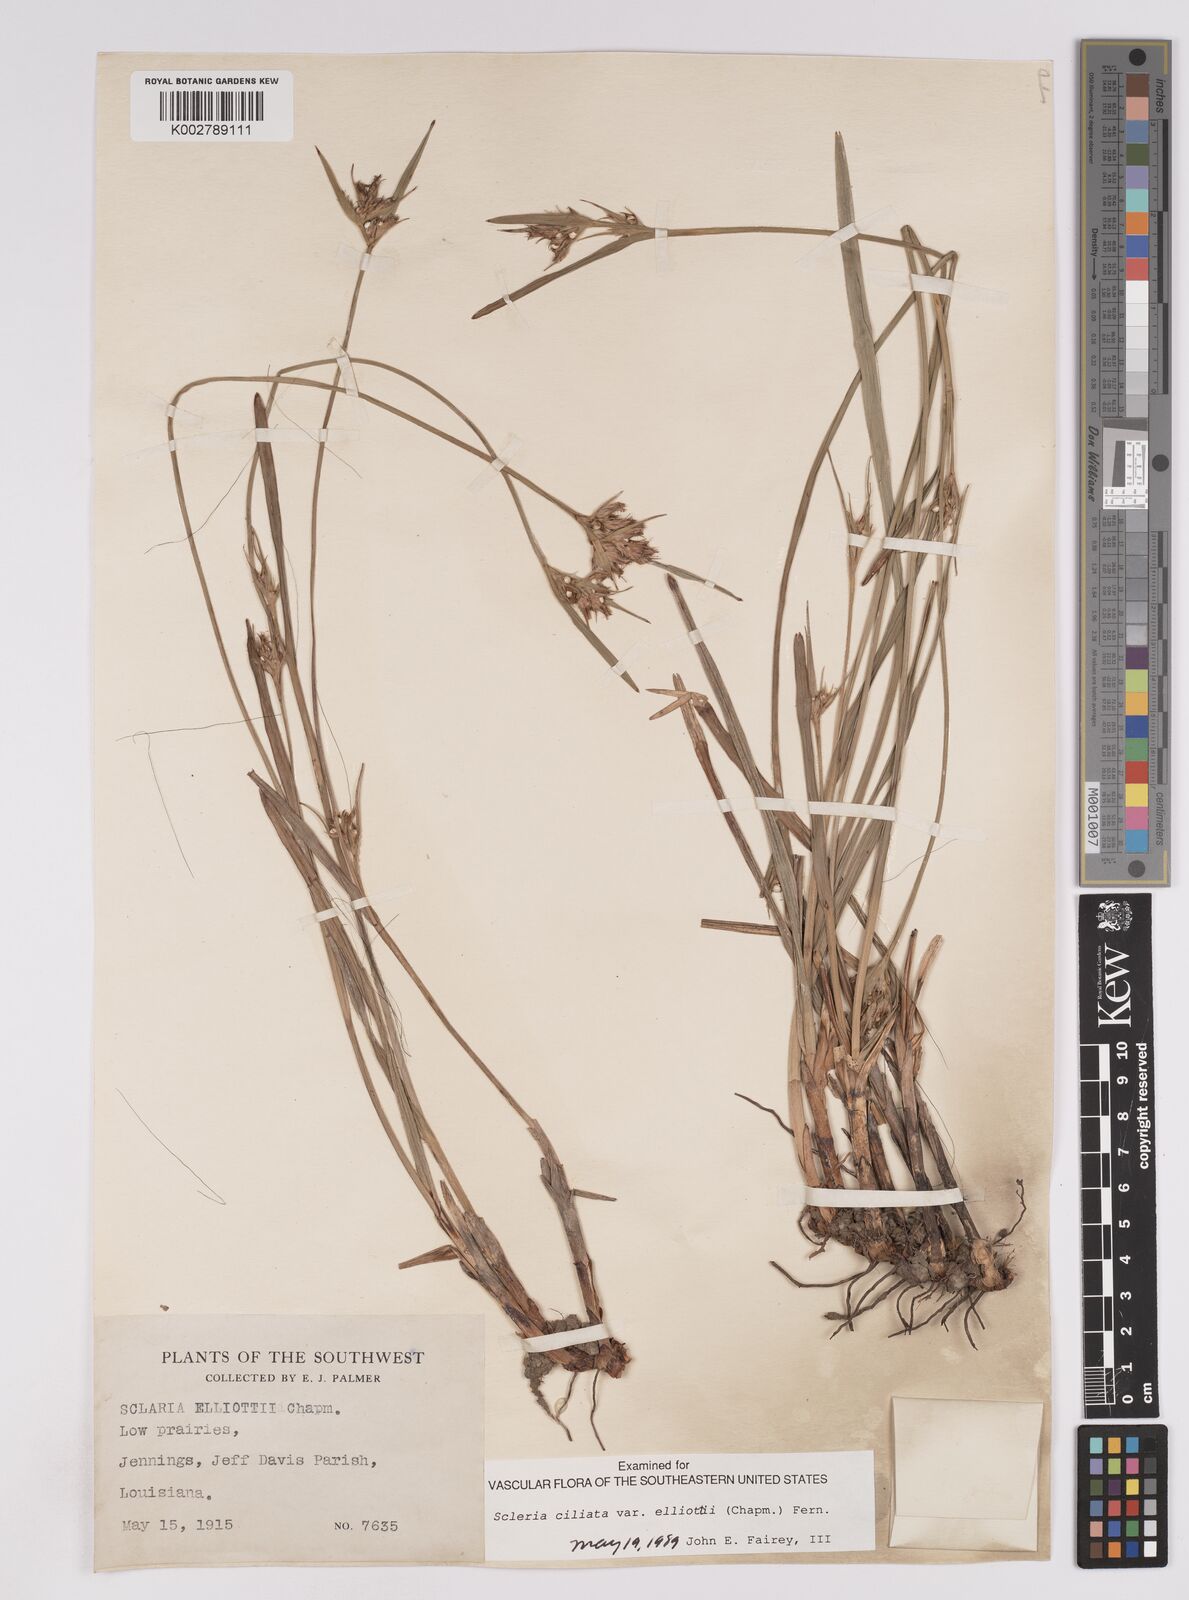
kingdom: Plantae
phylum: Tracheophyta
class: Liliopsida
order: Poales
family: Cyperaceae
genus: Scleria
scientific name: Scleria ciliata
